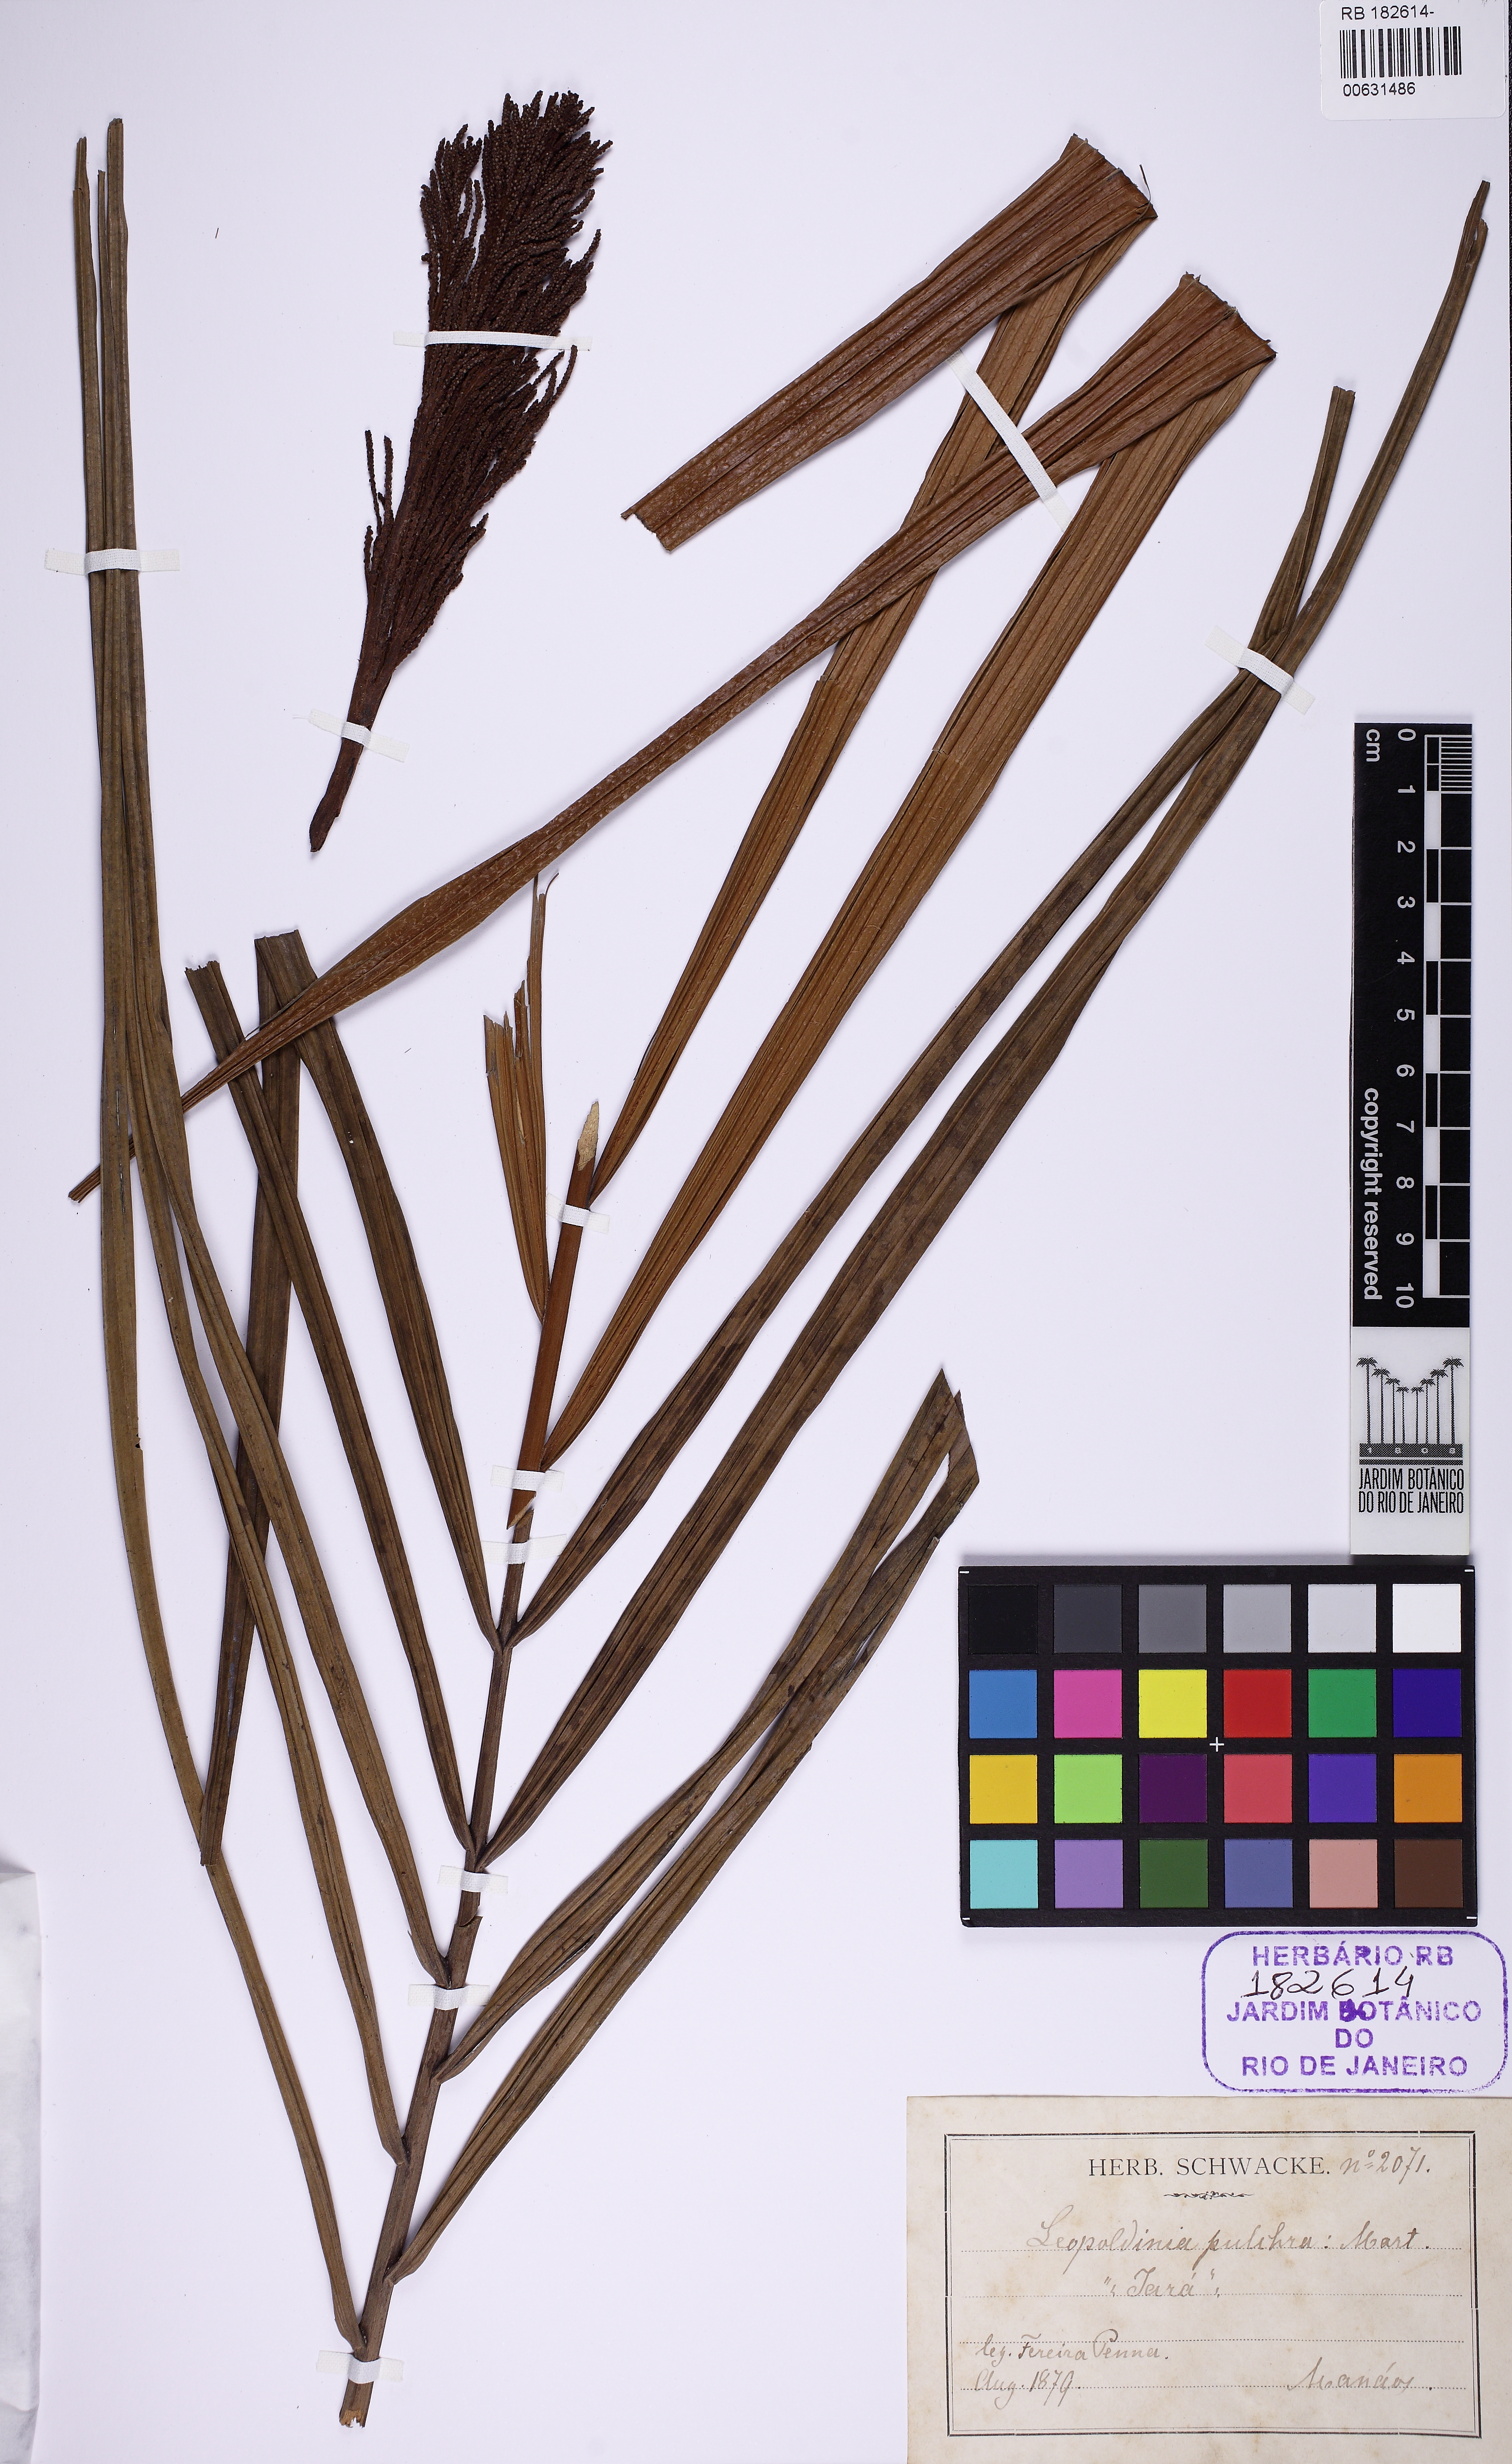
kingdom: Plantae
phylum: Tracheophyta
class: Liliopsida
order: Arecales
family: Arecaceae
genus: Leopoldinia
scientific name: Leopoldinia pulchra
